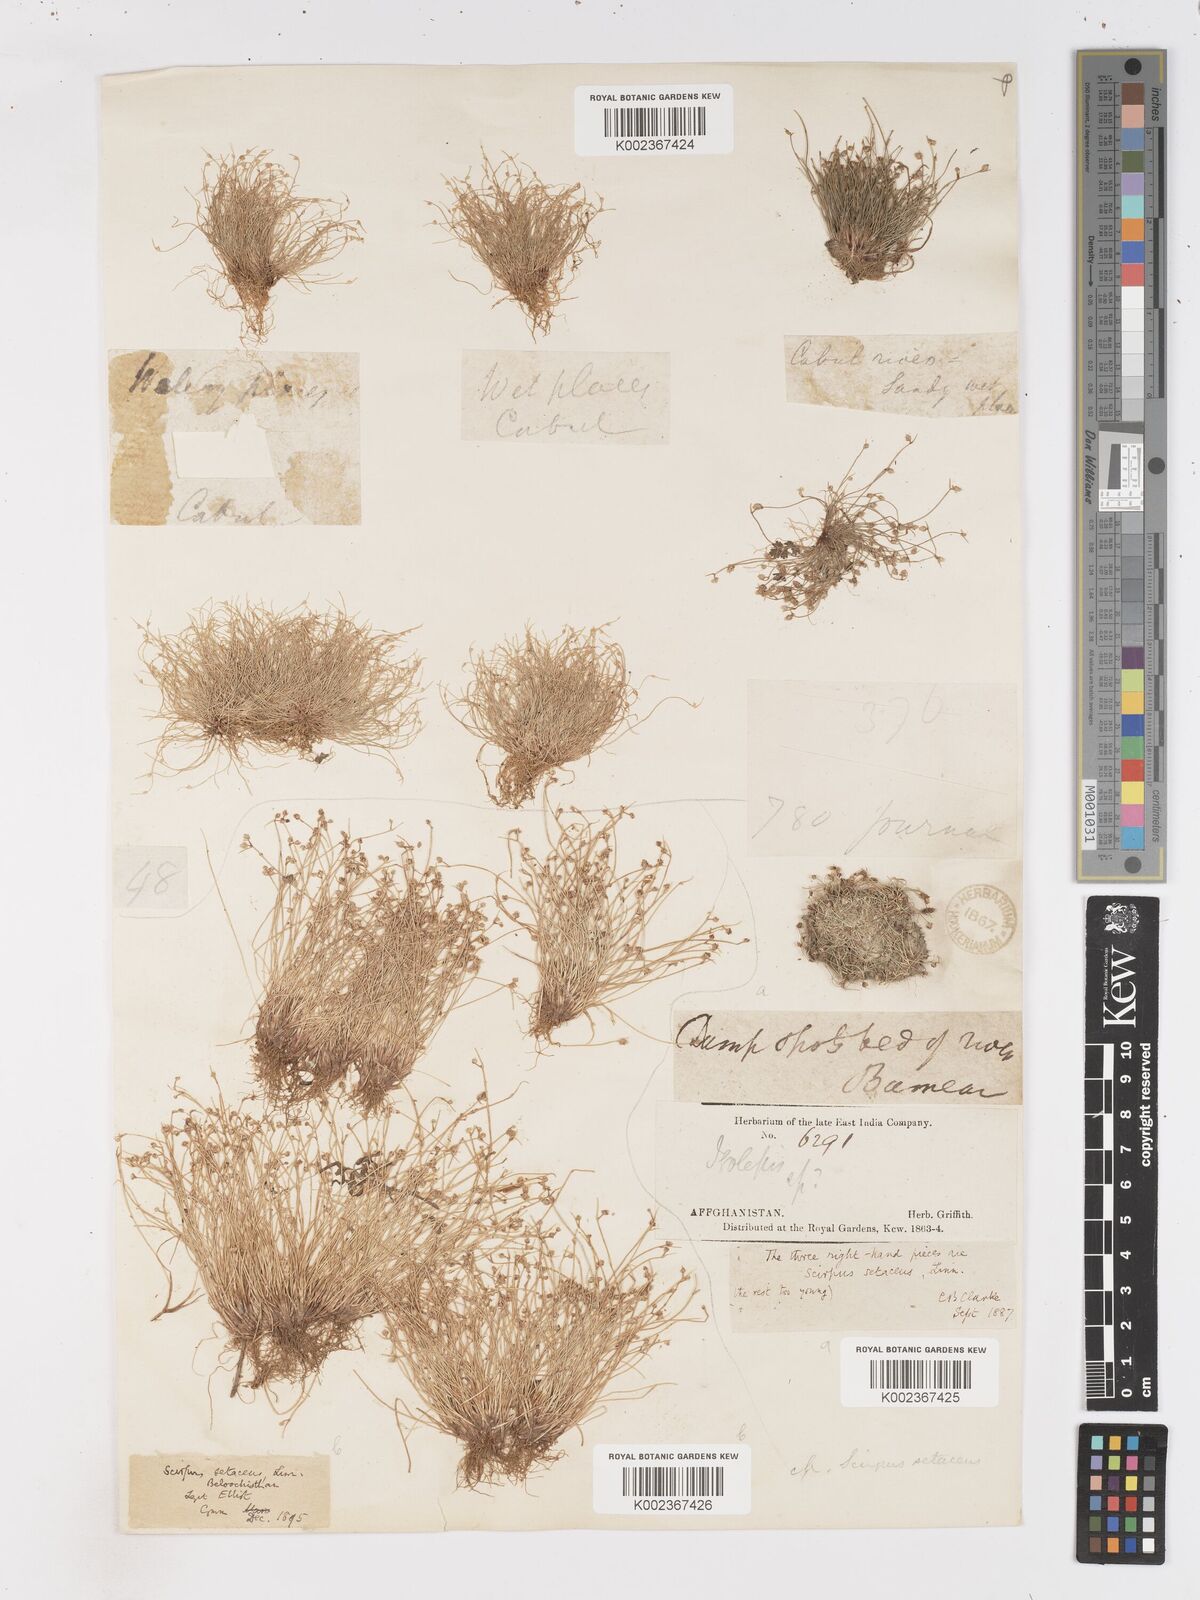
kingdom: Plantae
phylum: Tracheophyta
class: Liliopsida
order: Poales
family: Cyperaceae
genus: Isolepis
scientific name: Isolepis setacea
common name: Bristle club-rush
